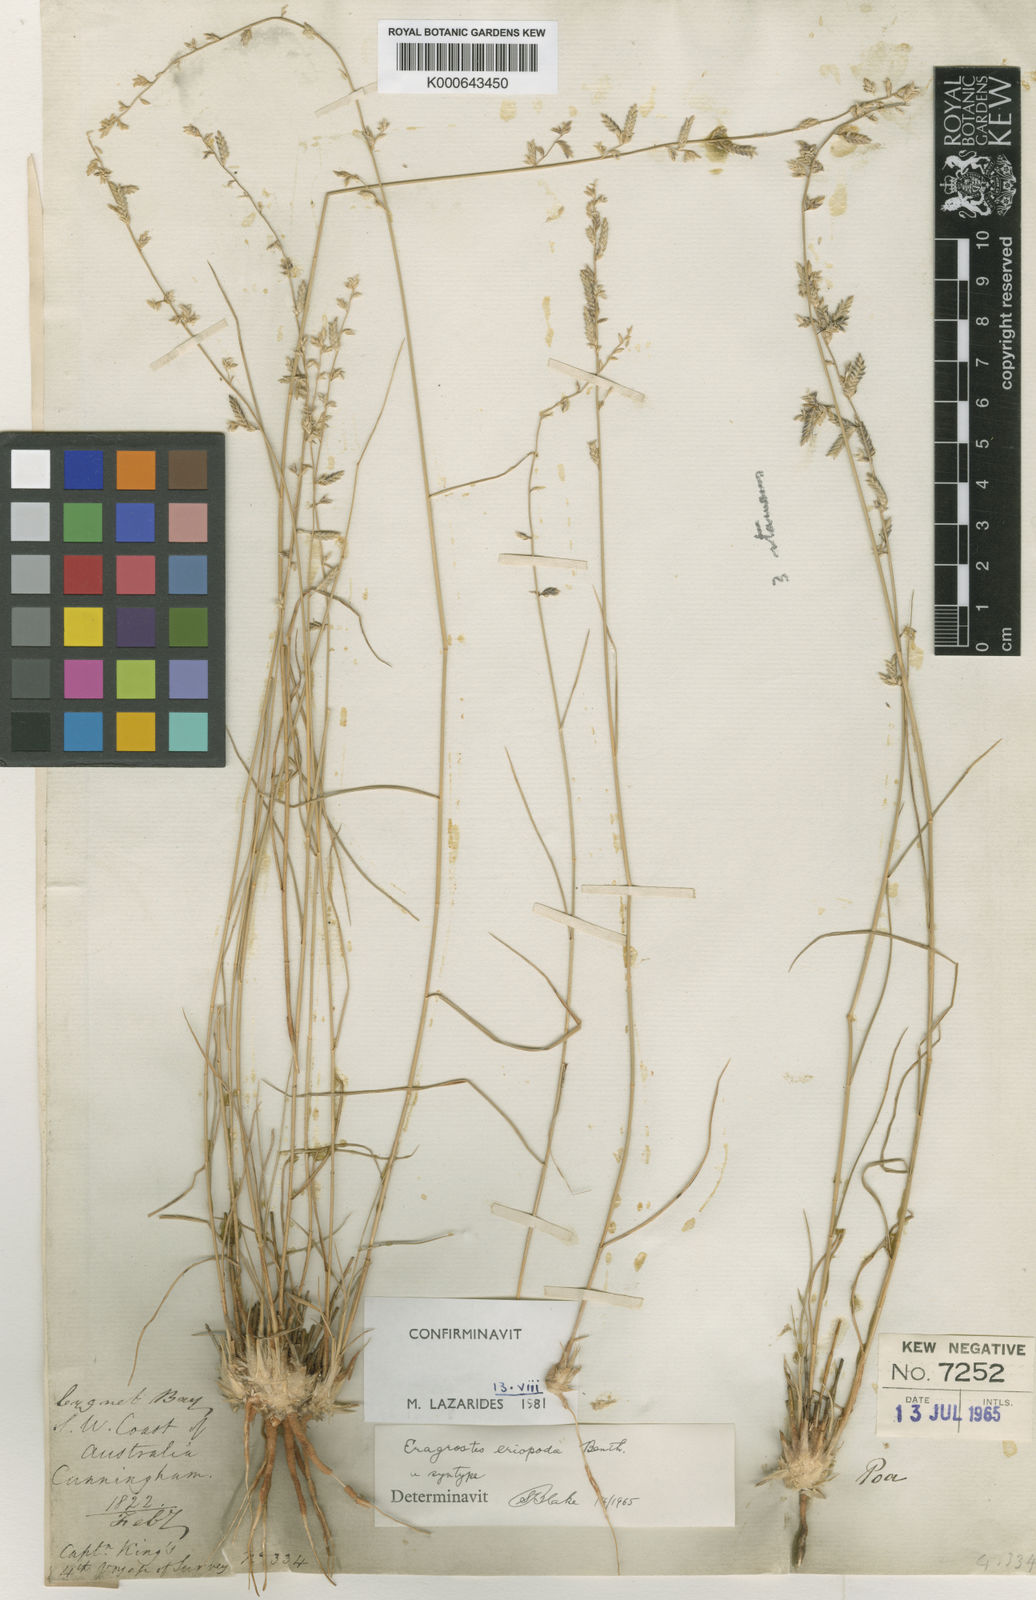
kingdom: Plantae
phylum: Tracheophyta
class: Liliopsida
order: Poales
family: Poaceae
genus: Eragrostis
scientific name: Eragrostis eriopoda
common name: Plain neverfail
